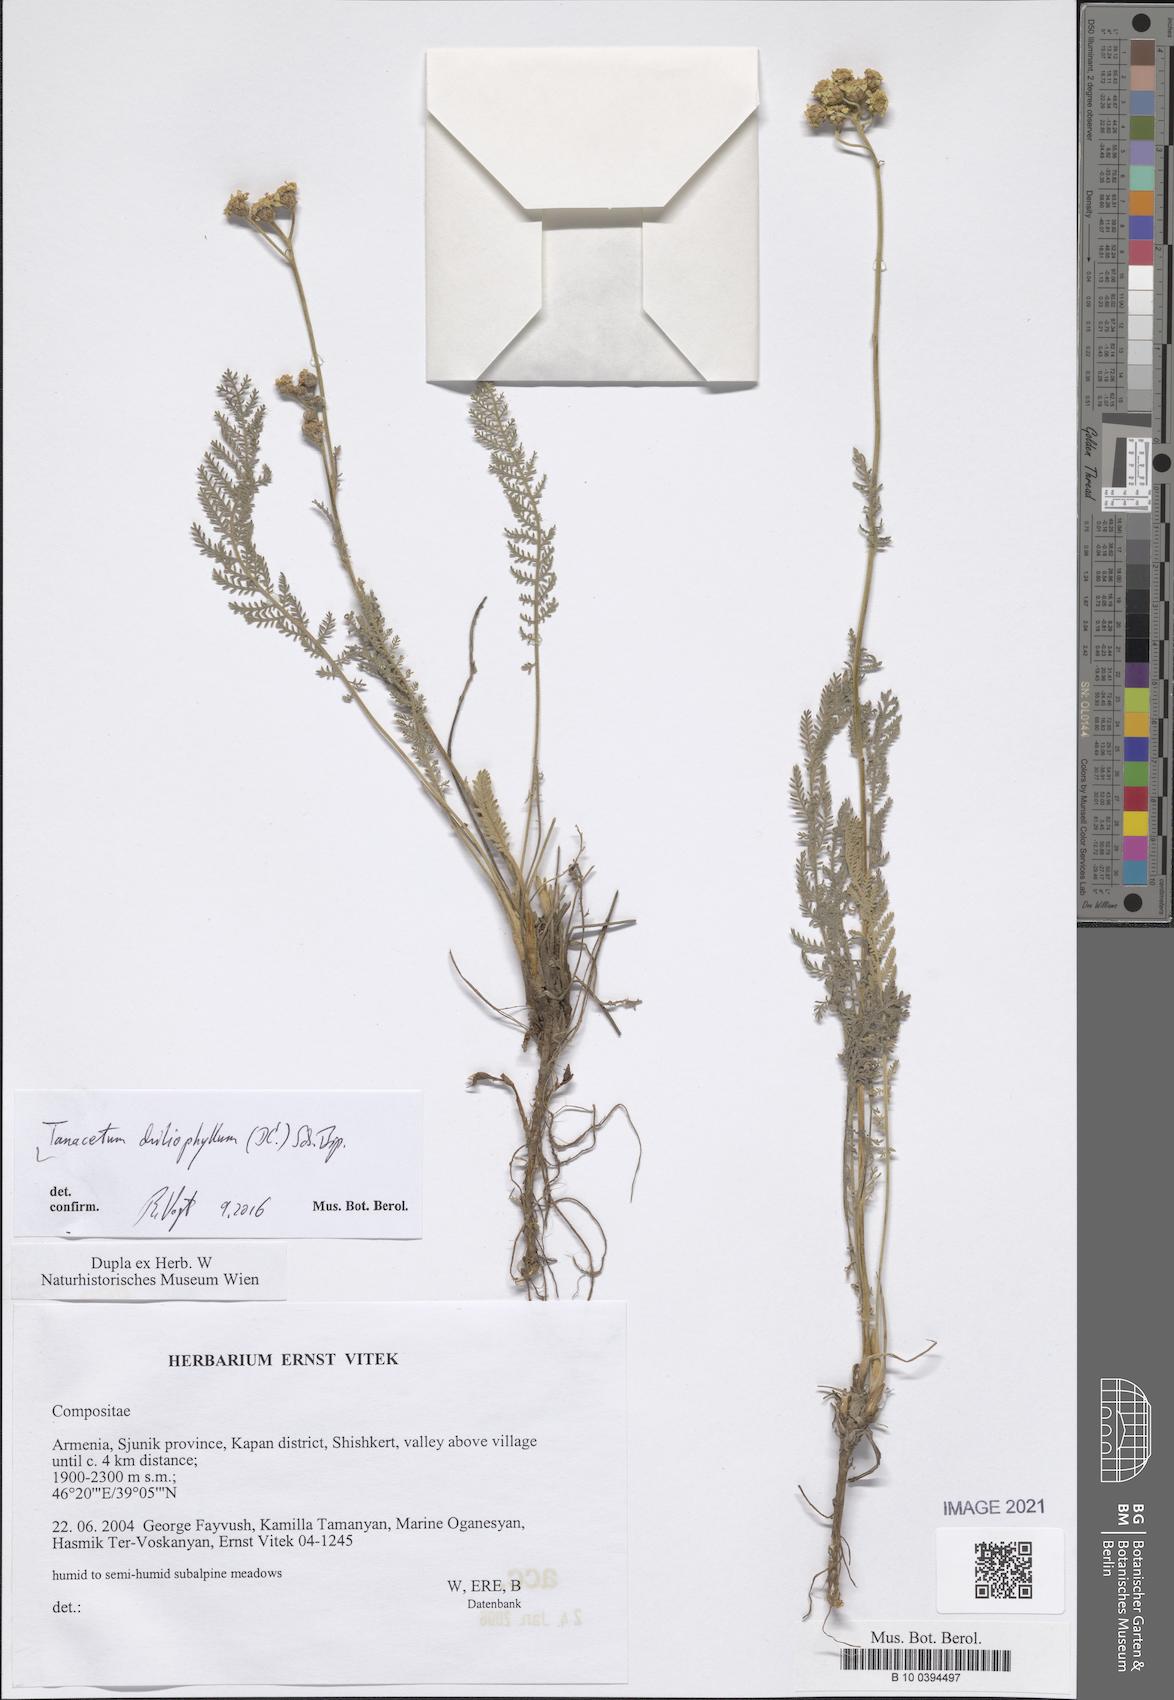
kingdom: Plantae
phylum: Tracheophyta
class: Magnoliopsida
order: Asterales
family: Asteraceae
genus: Tanacetum
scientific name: Tanacetum aureum
